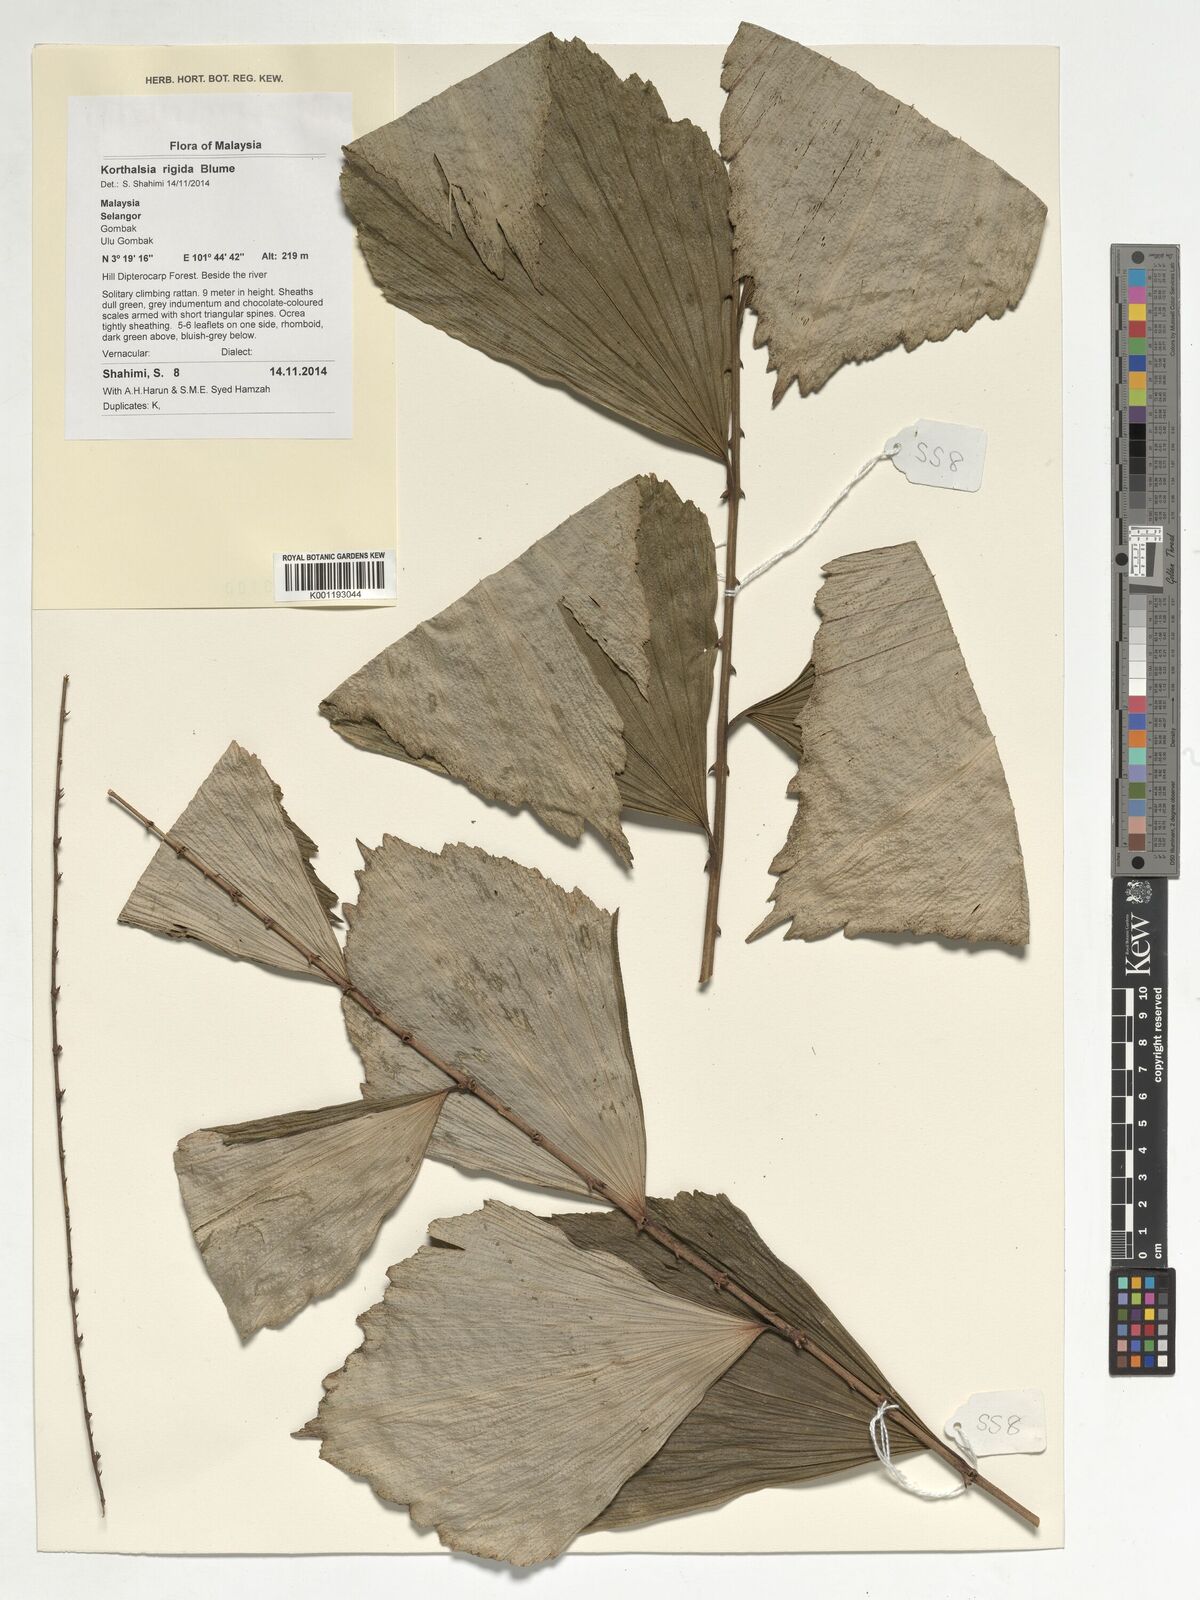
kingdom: Plantae
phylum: Tracheophyta
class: Liliopsida
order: Arecales
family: Arecaceae
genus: Korthalsia
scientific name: Korthalsia rigida
